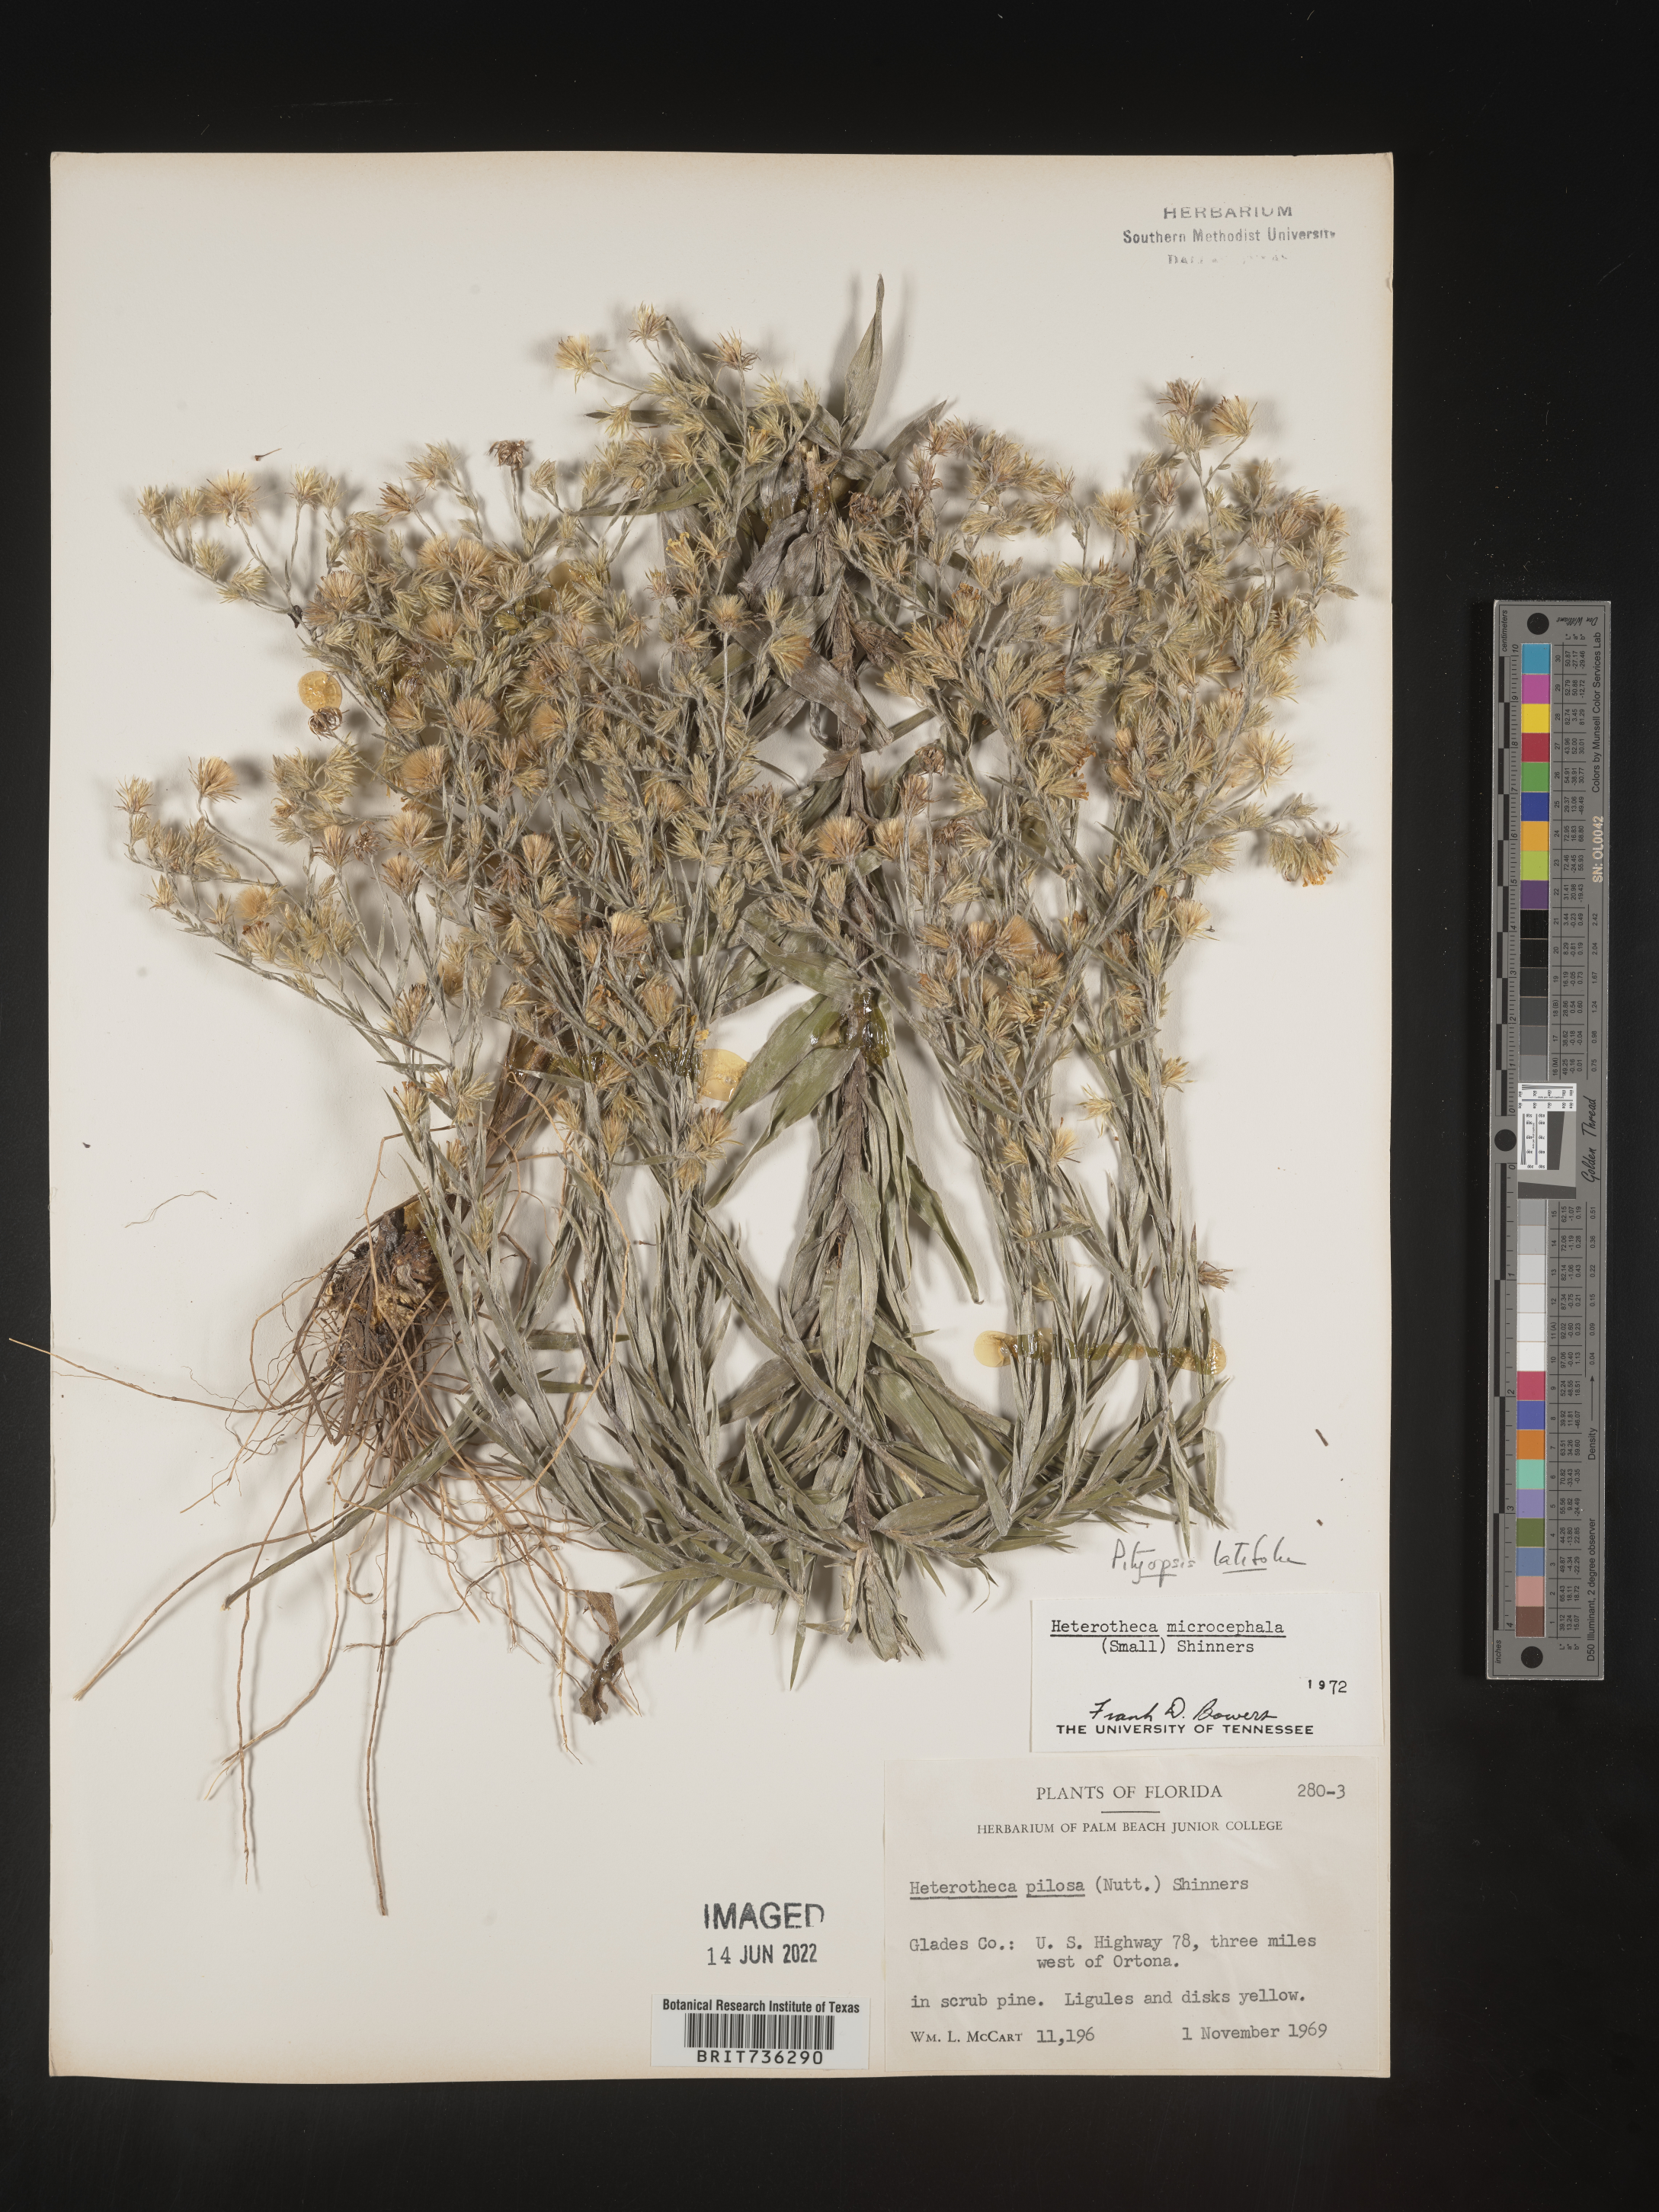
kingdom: Plantae
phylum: Tracheophyta
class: Magnoliopsida
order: Asterales
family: Asteraceae
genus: Pityopsis
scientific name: Pityopsis latifolia
